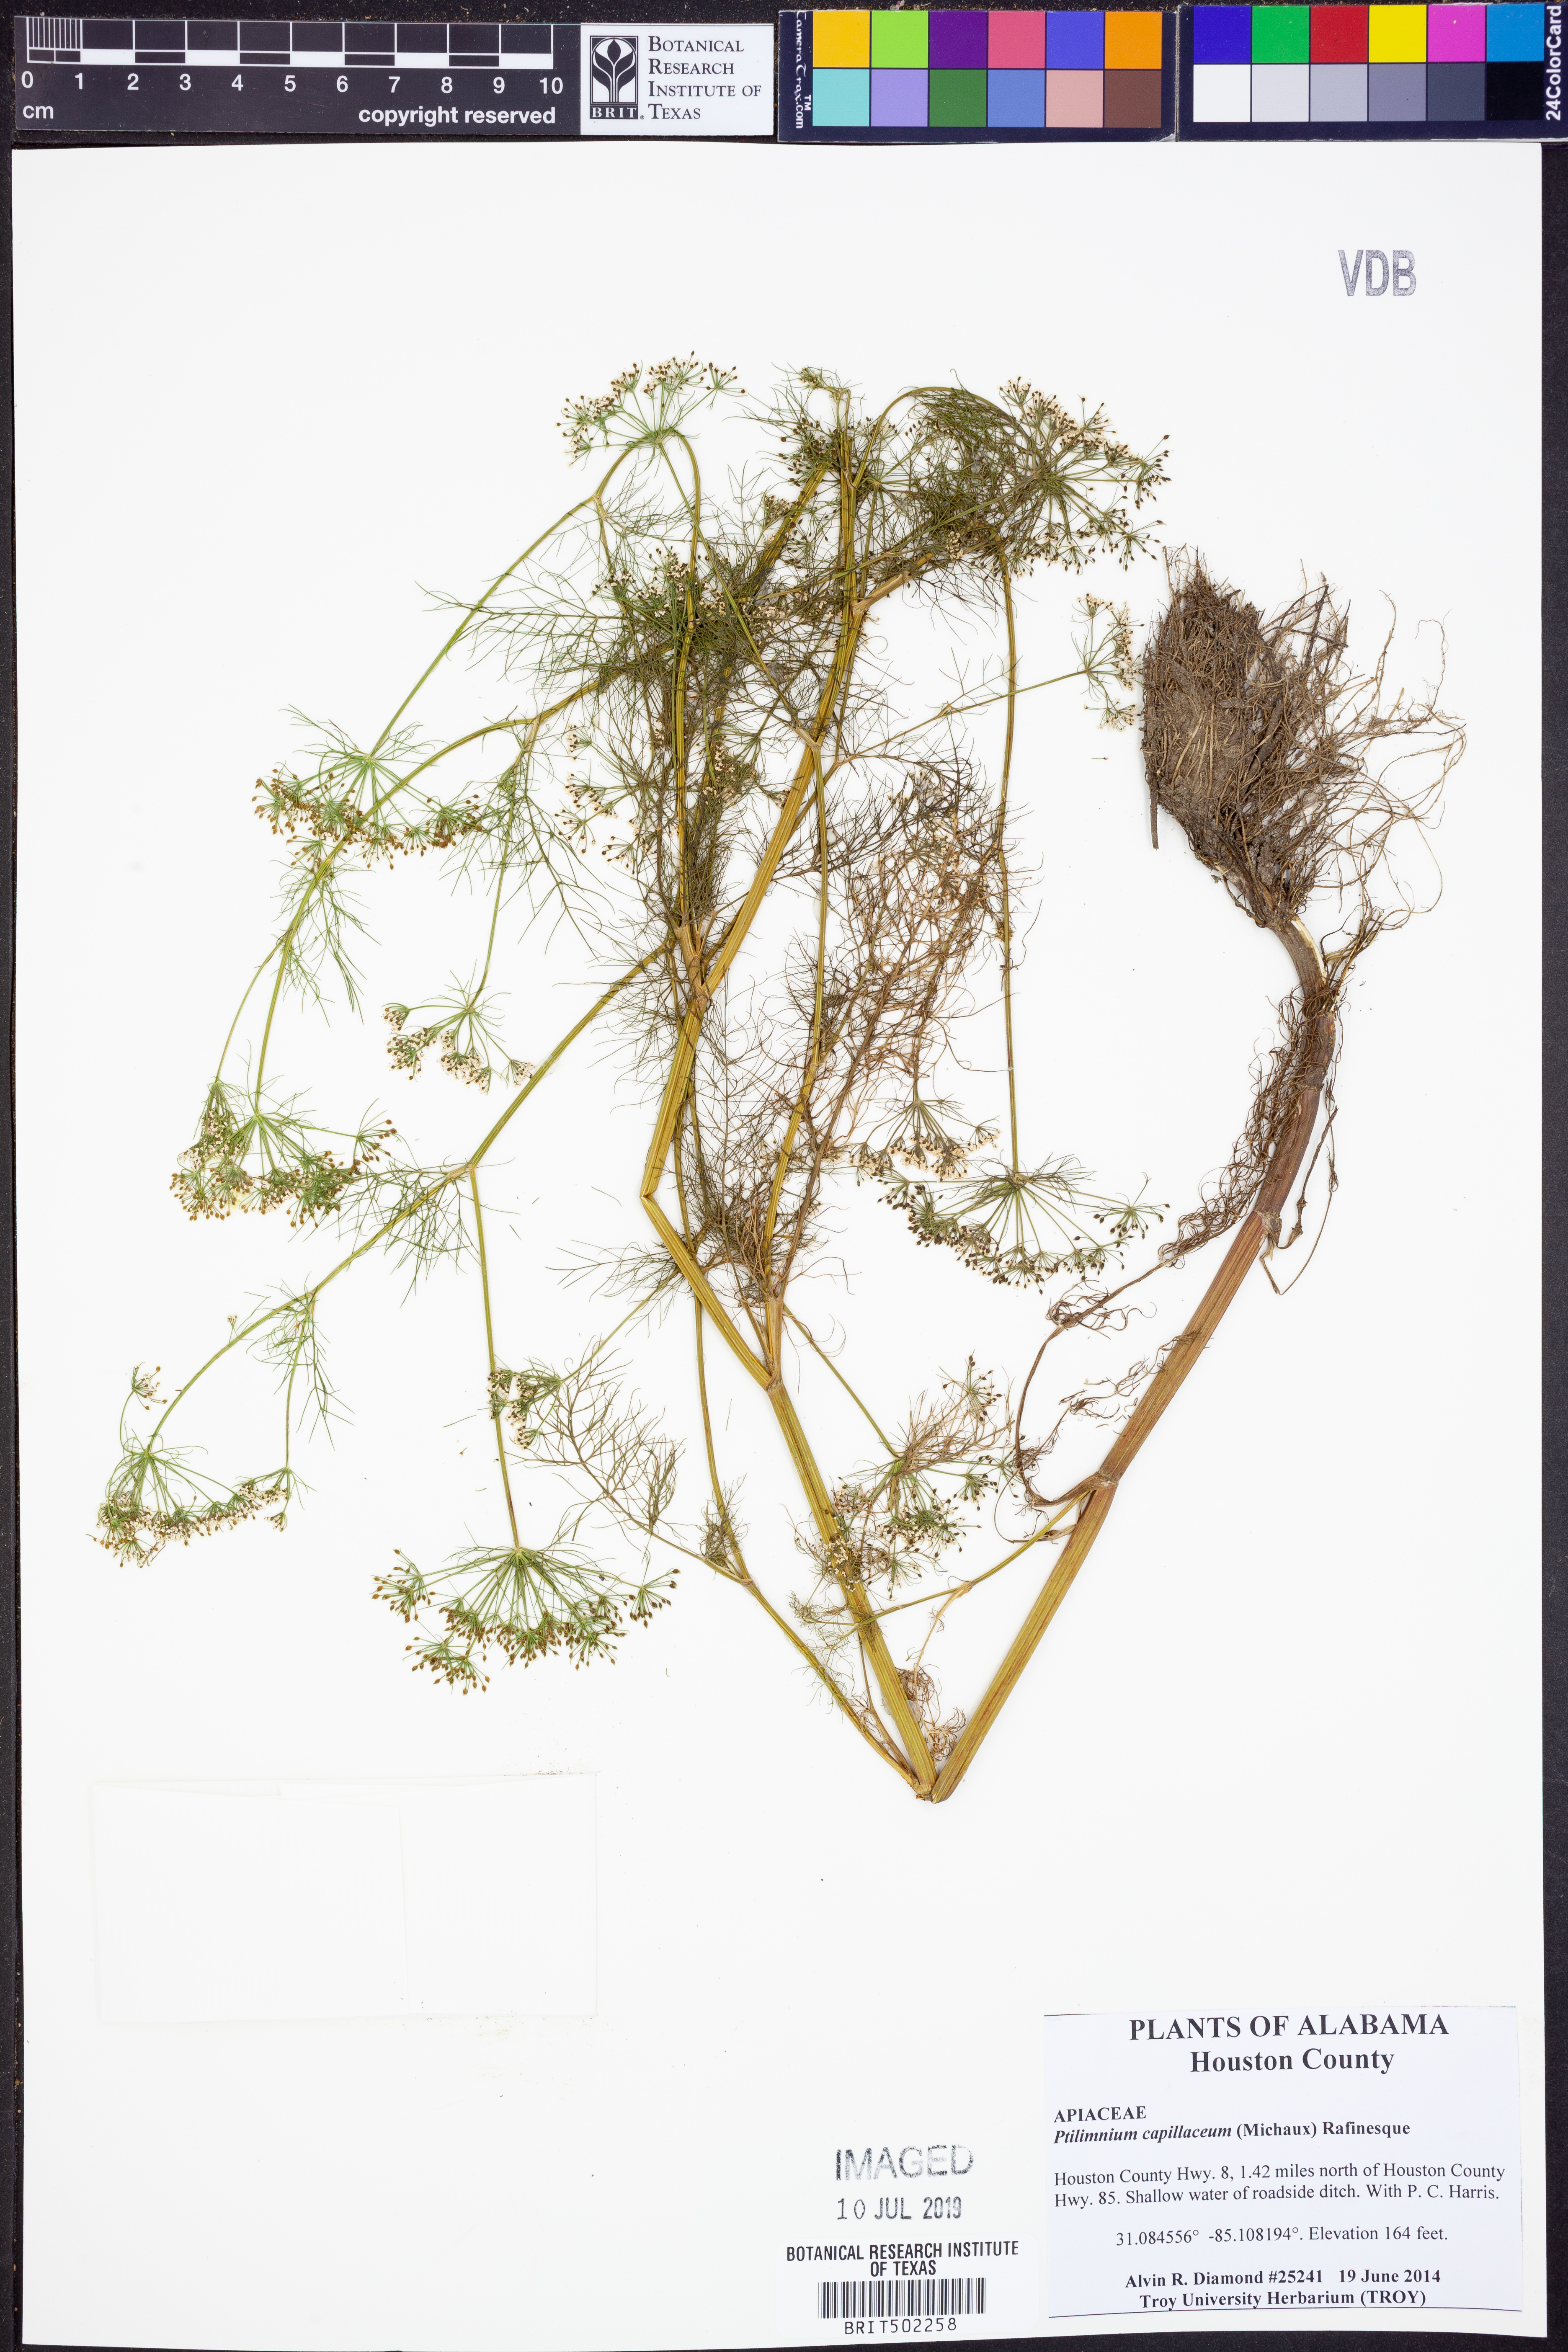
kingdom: Plantae
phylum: Tracheophyta
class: Magnoliopsida
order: Apiales
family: Apiaceae
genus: Ptilimnium
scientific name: Ptilimnium capillaceum
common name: Herbwilliam
